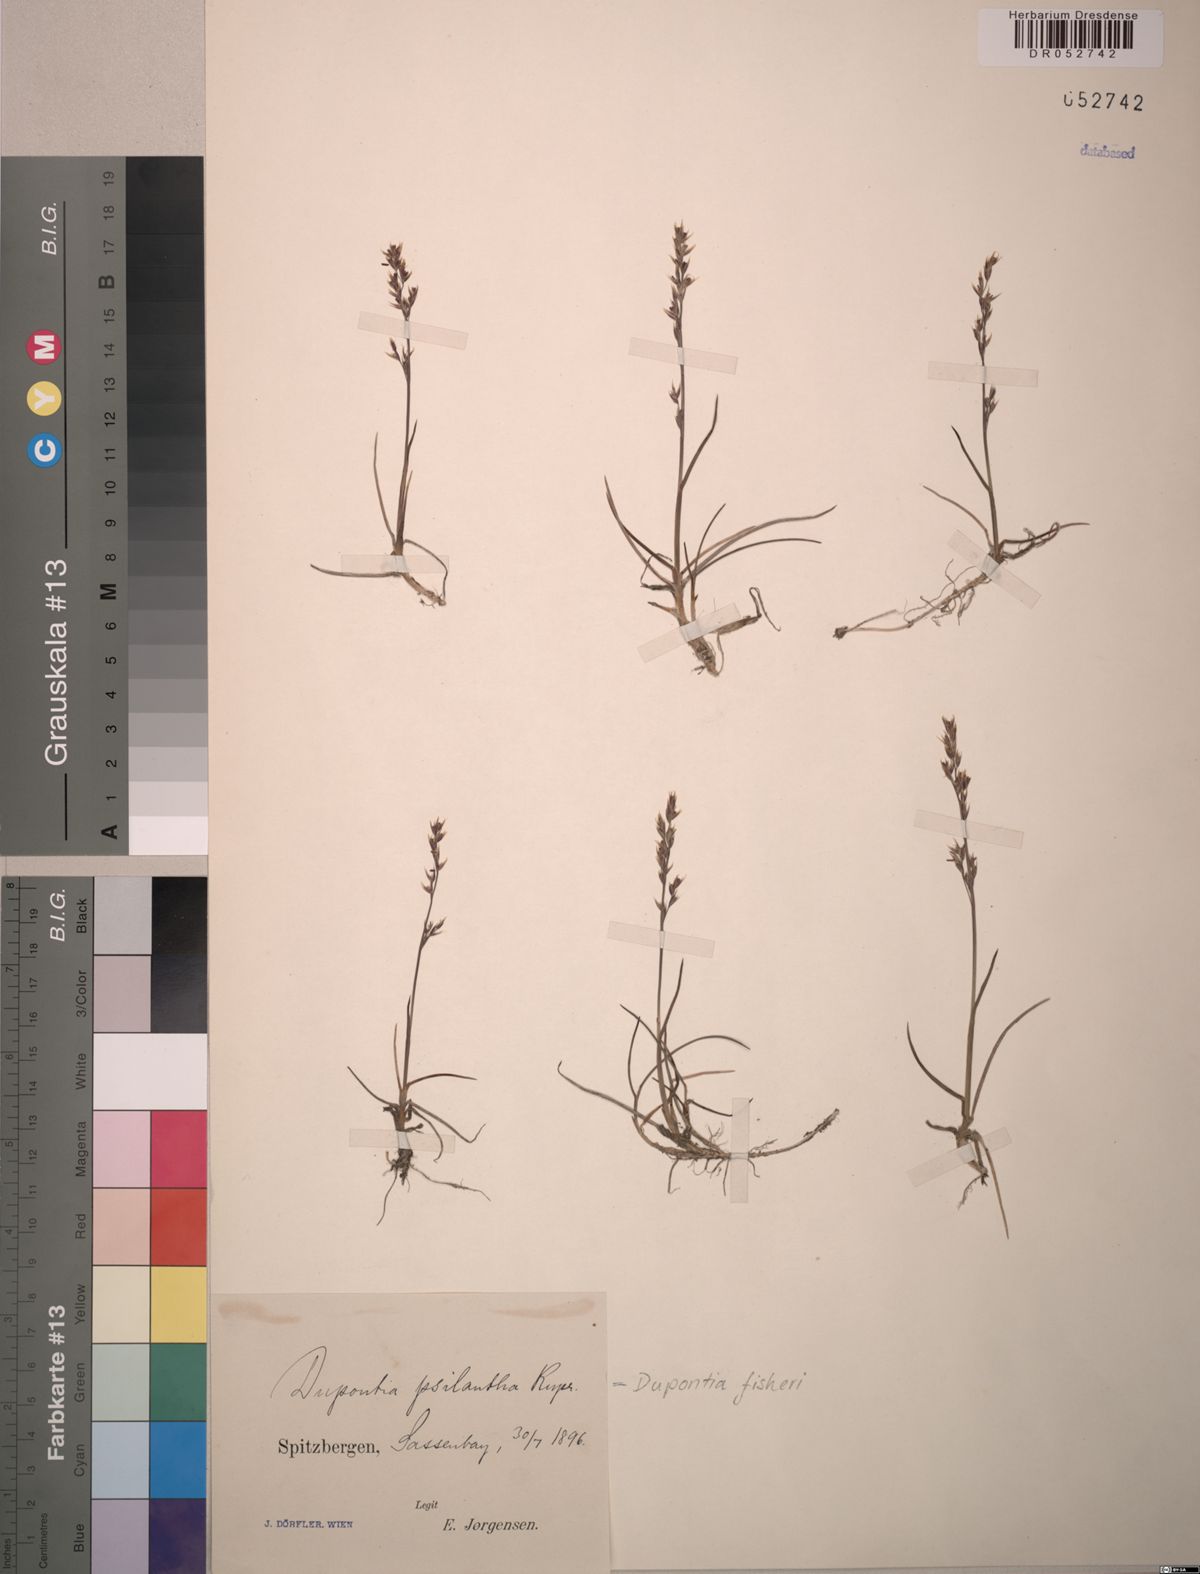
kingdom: Plantae
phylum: Tracheophyta
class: Liliopsida
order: Poales
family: Poaceae
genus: Dupontia
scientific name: Dupontia fisheri
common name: Tundra grass
